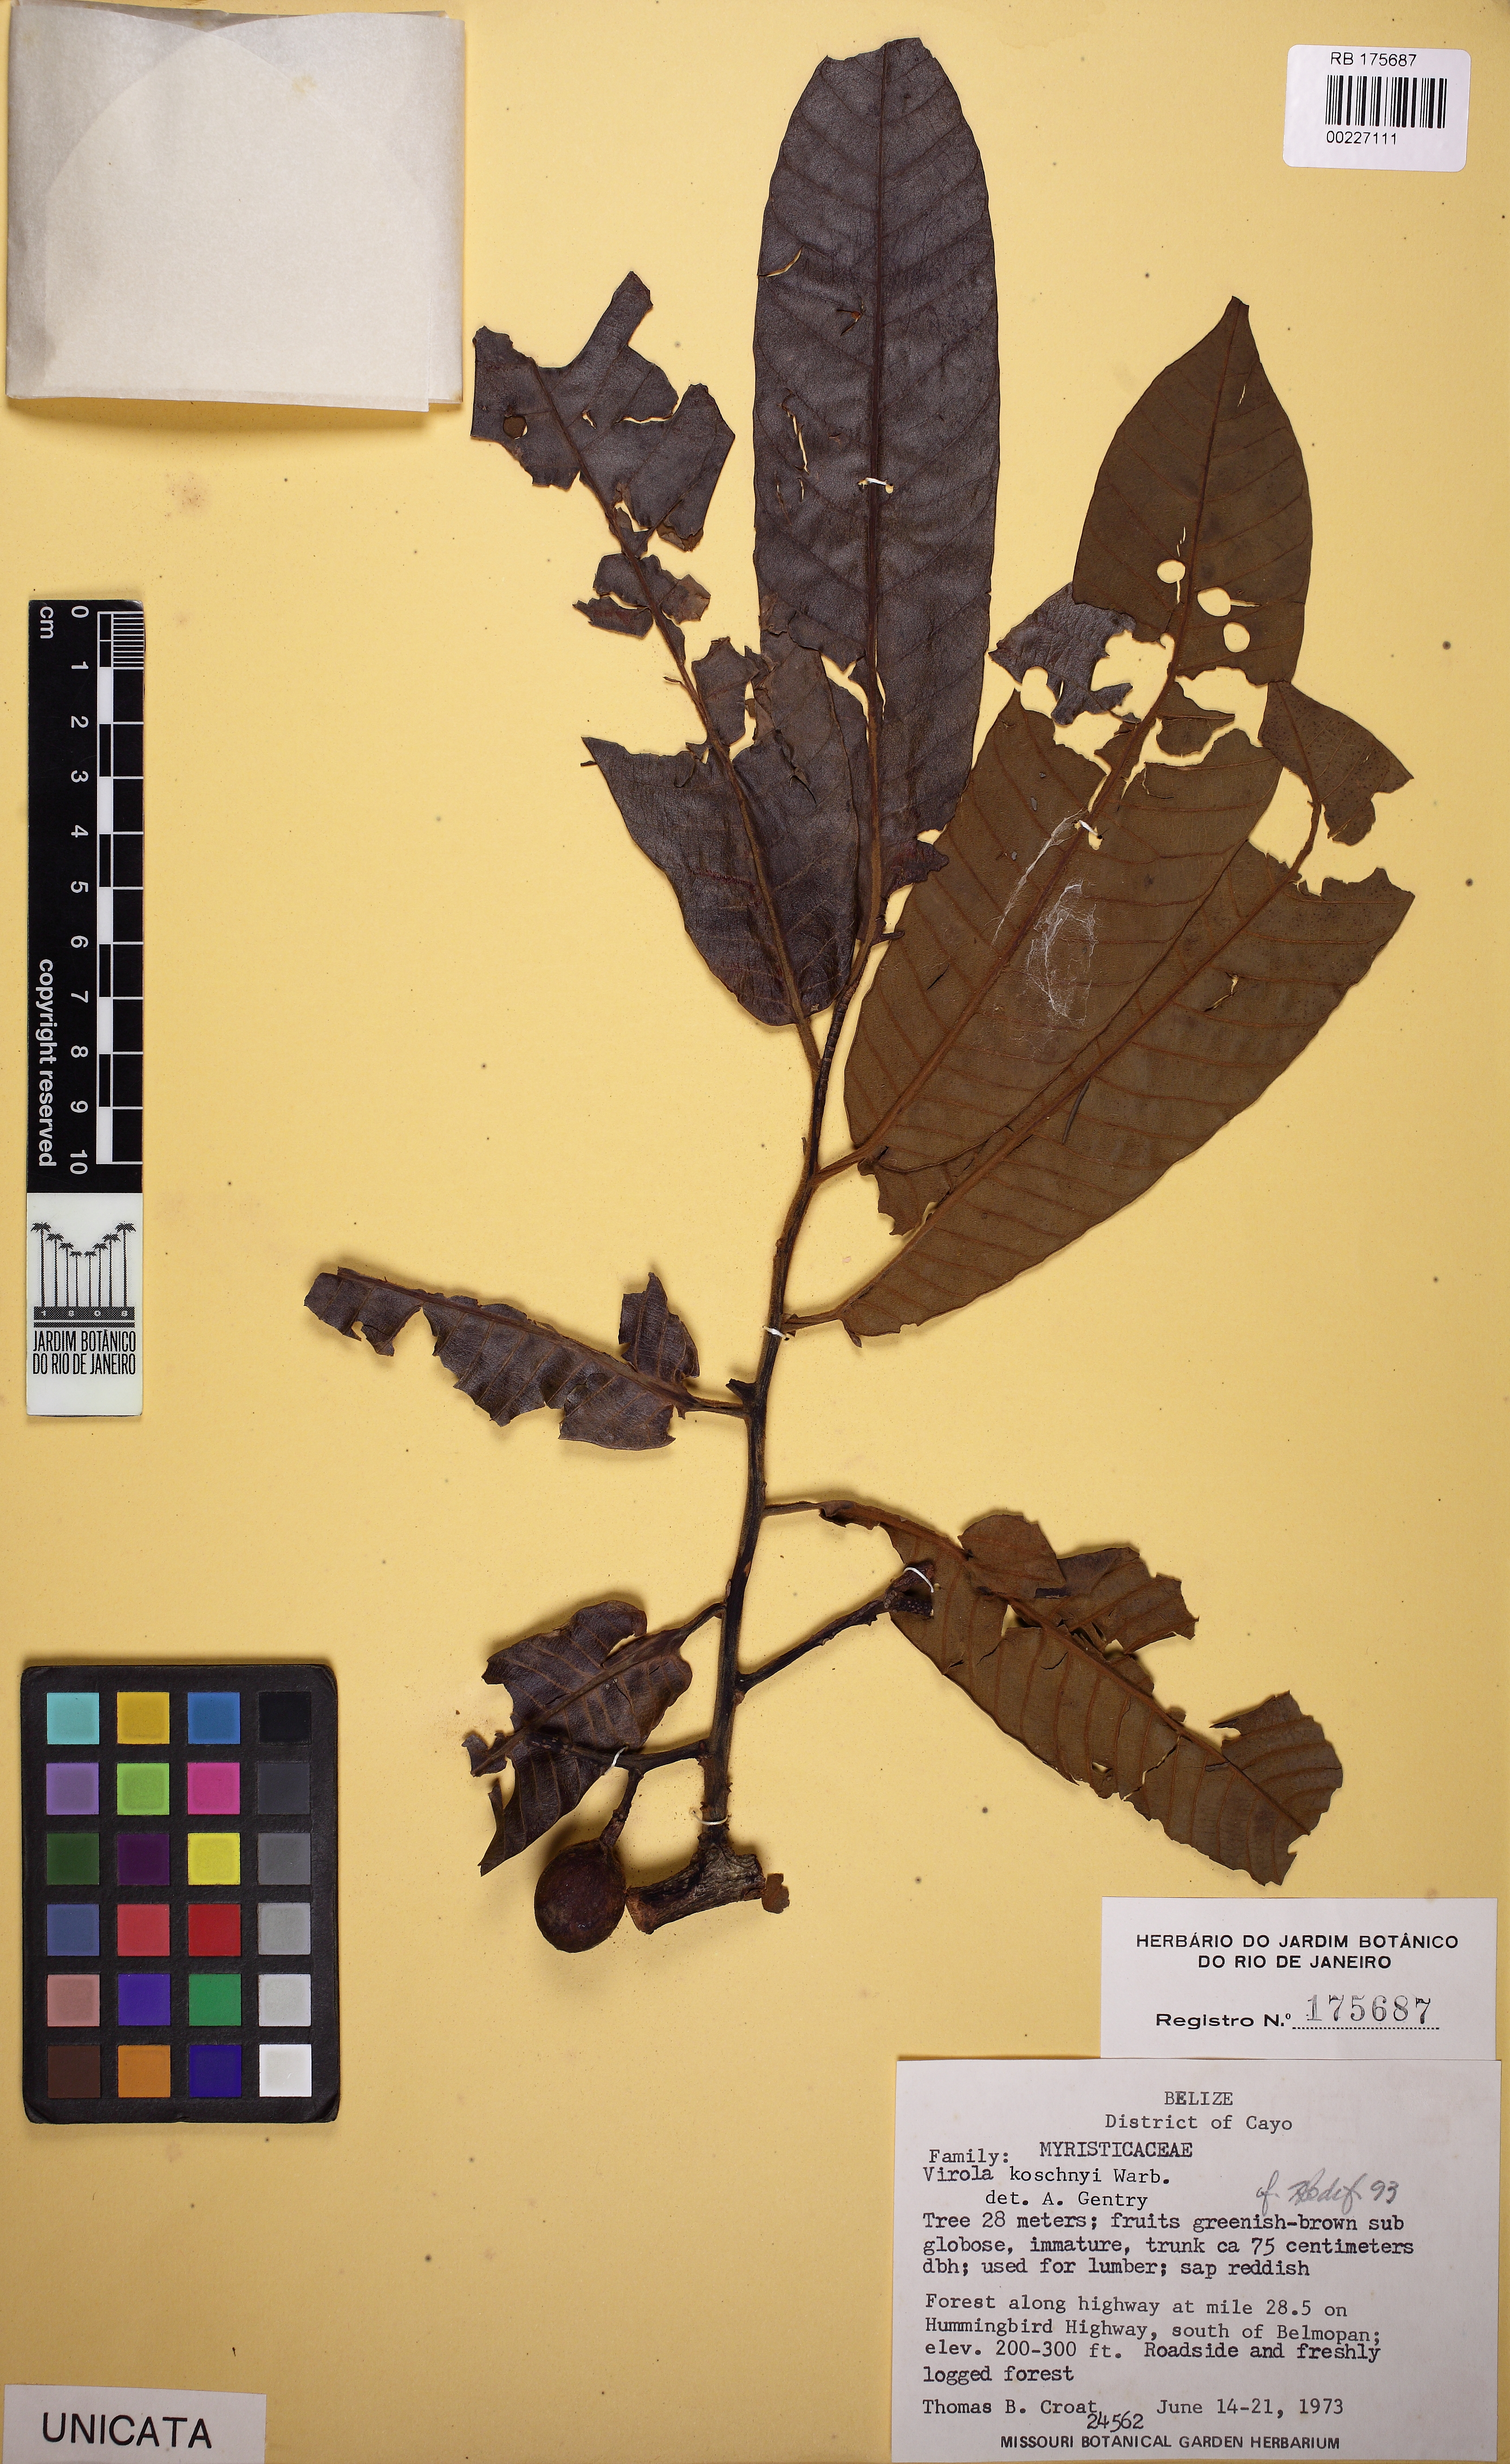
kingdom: Plantae
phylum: Tracheophyta
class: Magnoliopsida
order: Magnoliales
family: Myristicaceae
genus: Virola
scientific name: Virola koschnyi
